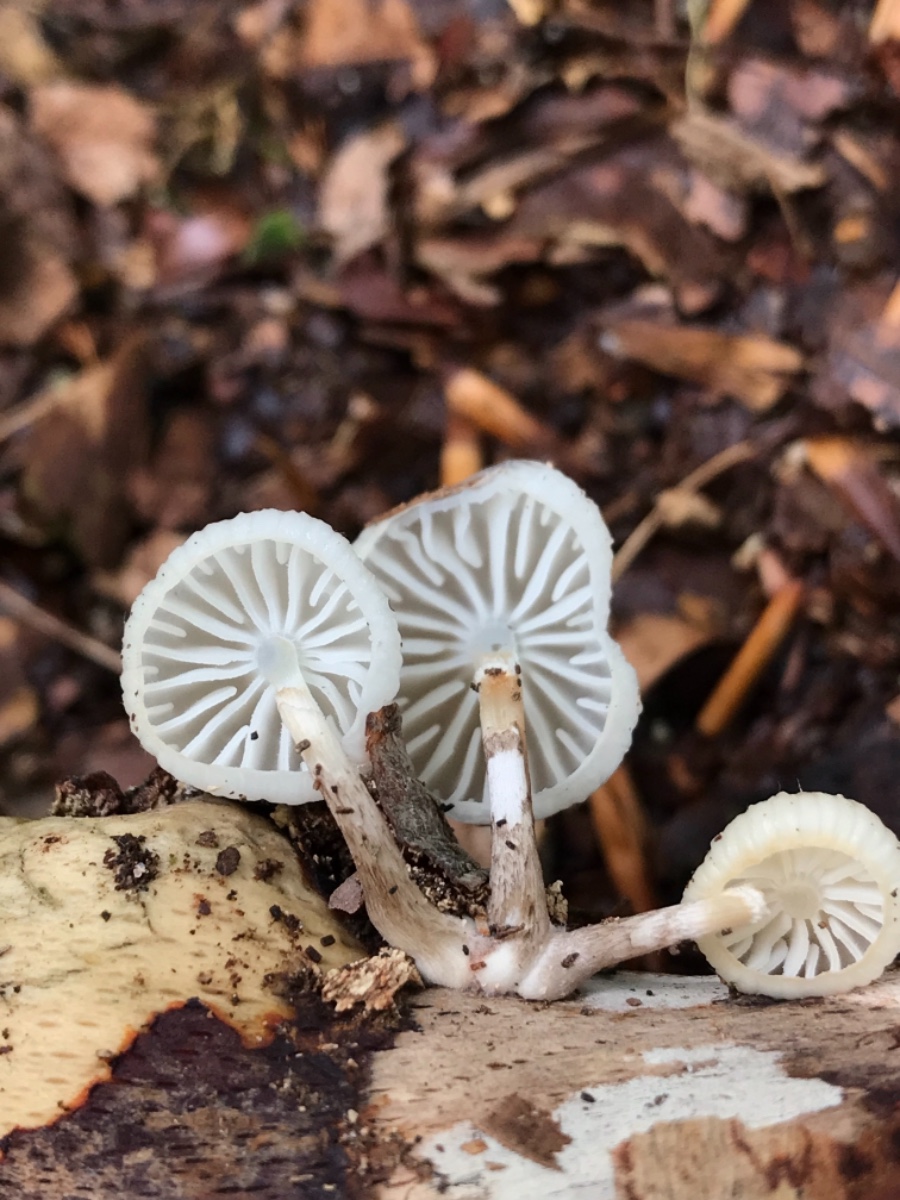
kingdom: Fungi
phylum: Basidiomycota
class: Agaricomycetes
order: Agaricales
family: Physalacriaceae
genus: Mucidula
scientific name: Mucidula mucida
